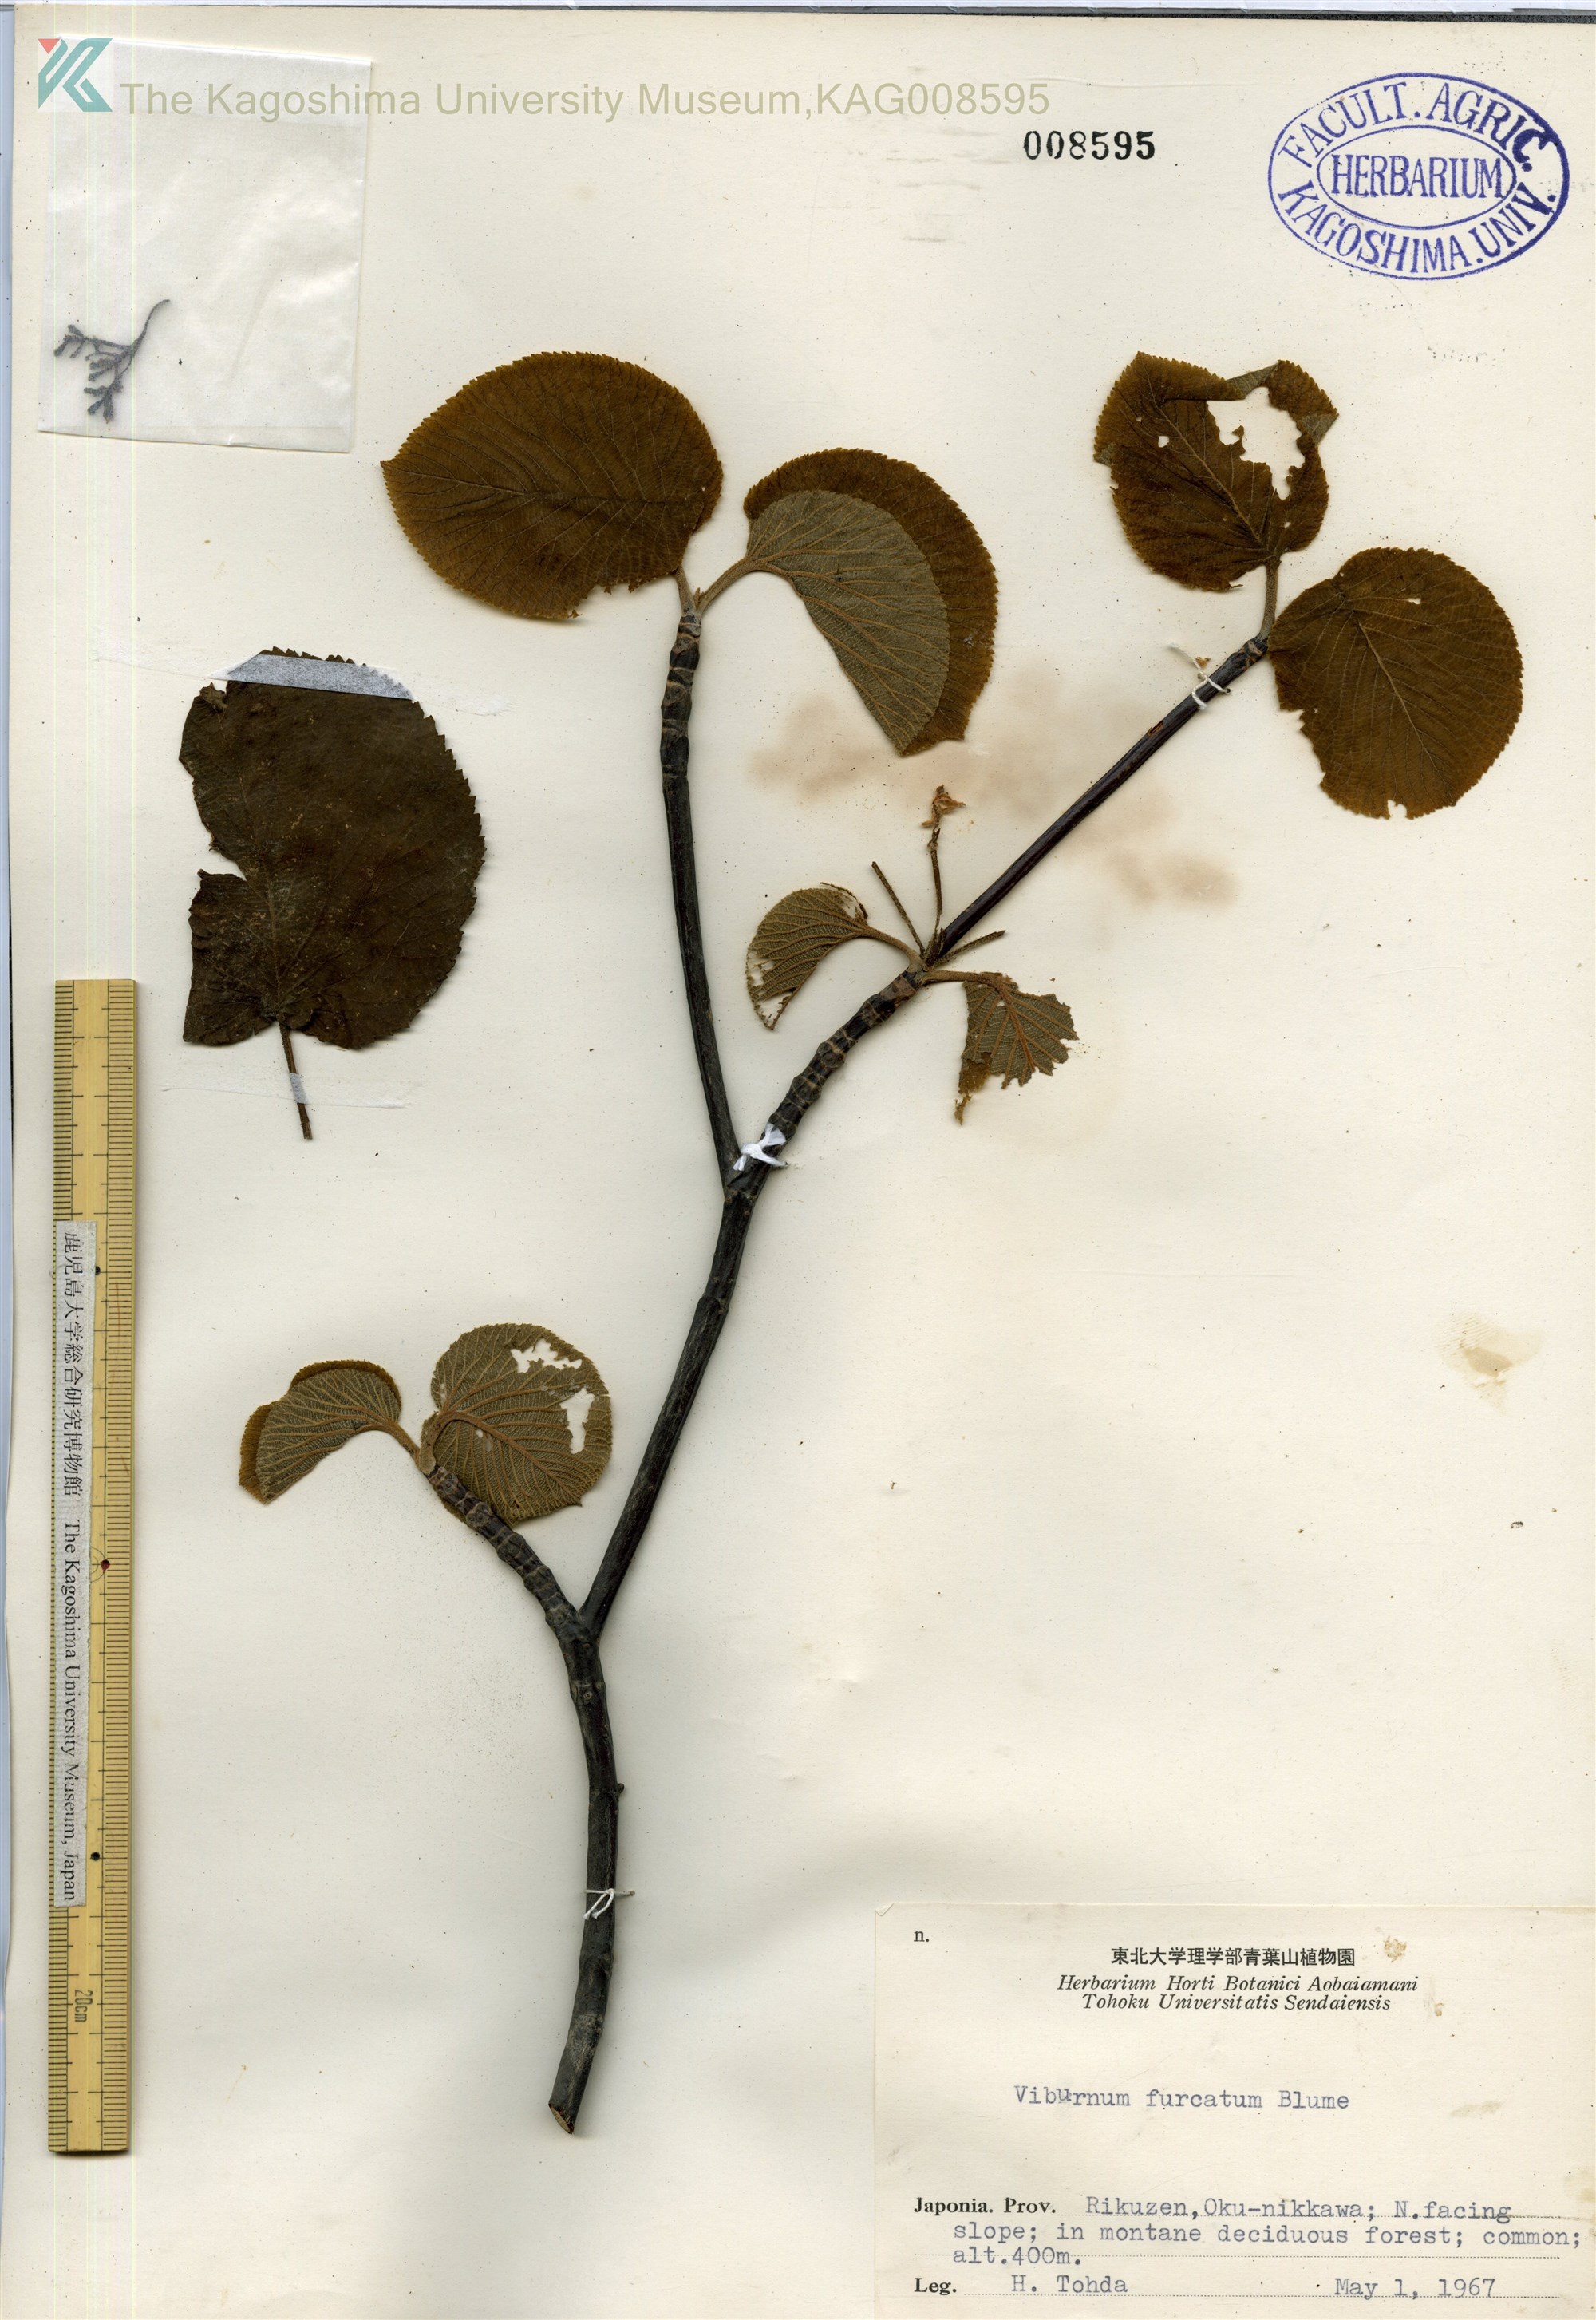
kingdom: Plantae
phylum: Tracheophyta
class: Magnoliopsida
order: Dipsacales
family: Viburnaceae
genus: Viburnum
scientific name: Viburnum furcatum
